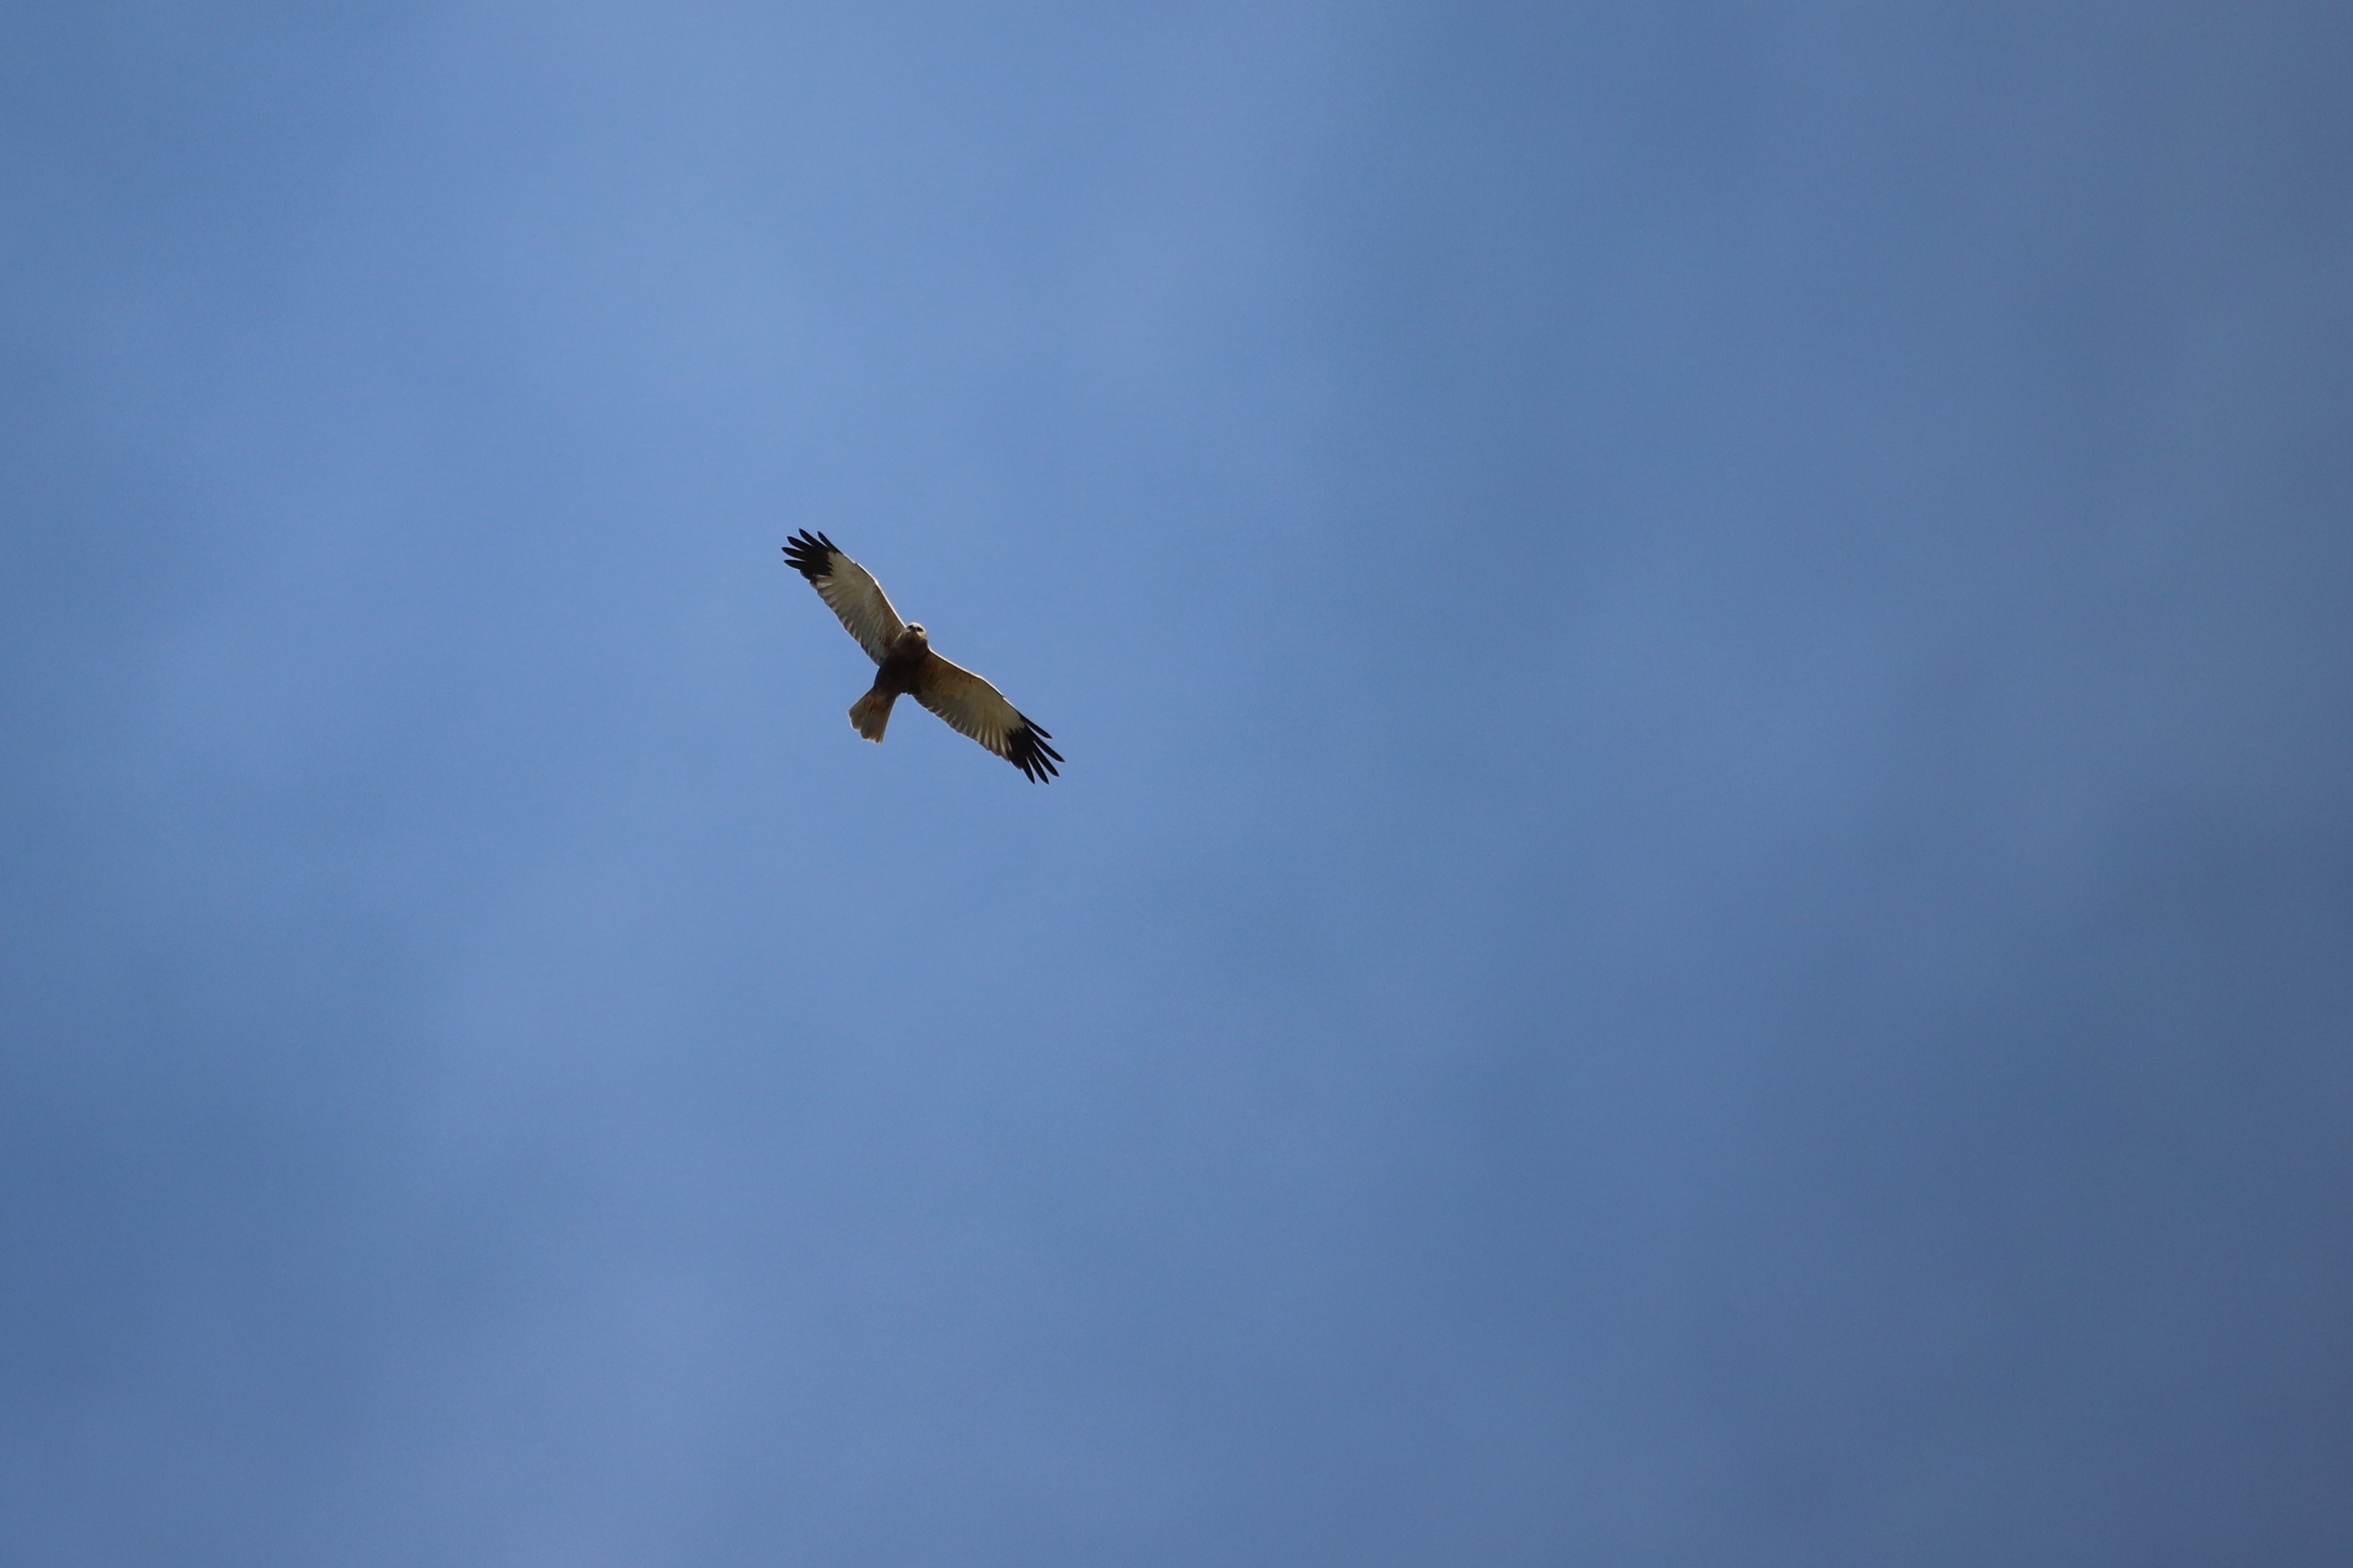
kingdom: Animalia
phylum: Chordata
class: Aves
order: Accipitriformes
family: Accipitridae
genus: Circus
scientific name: Circus aeruginosus
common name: Rørhøg
